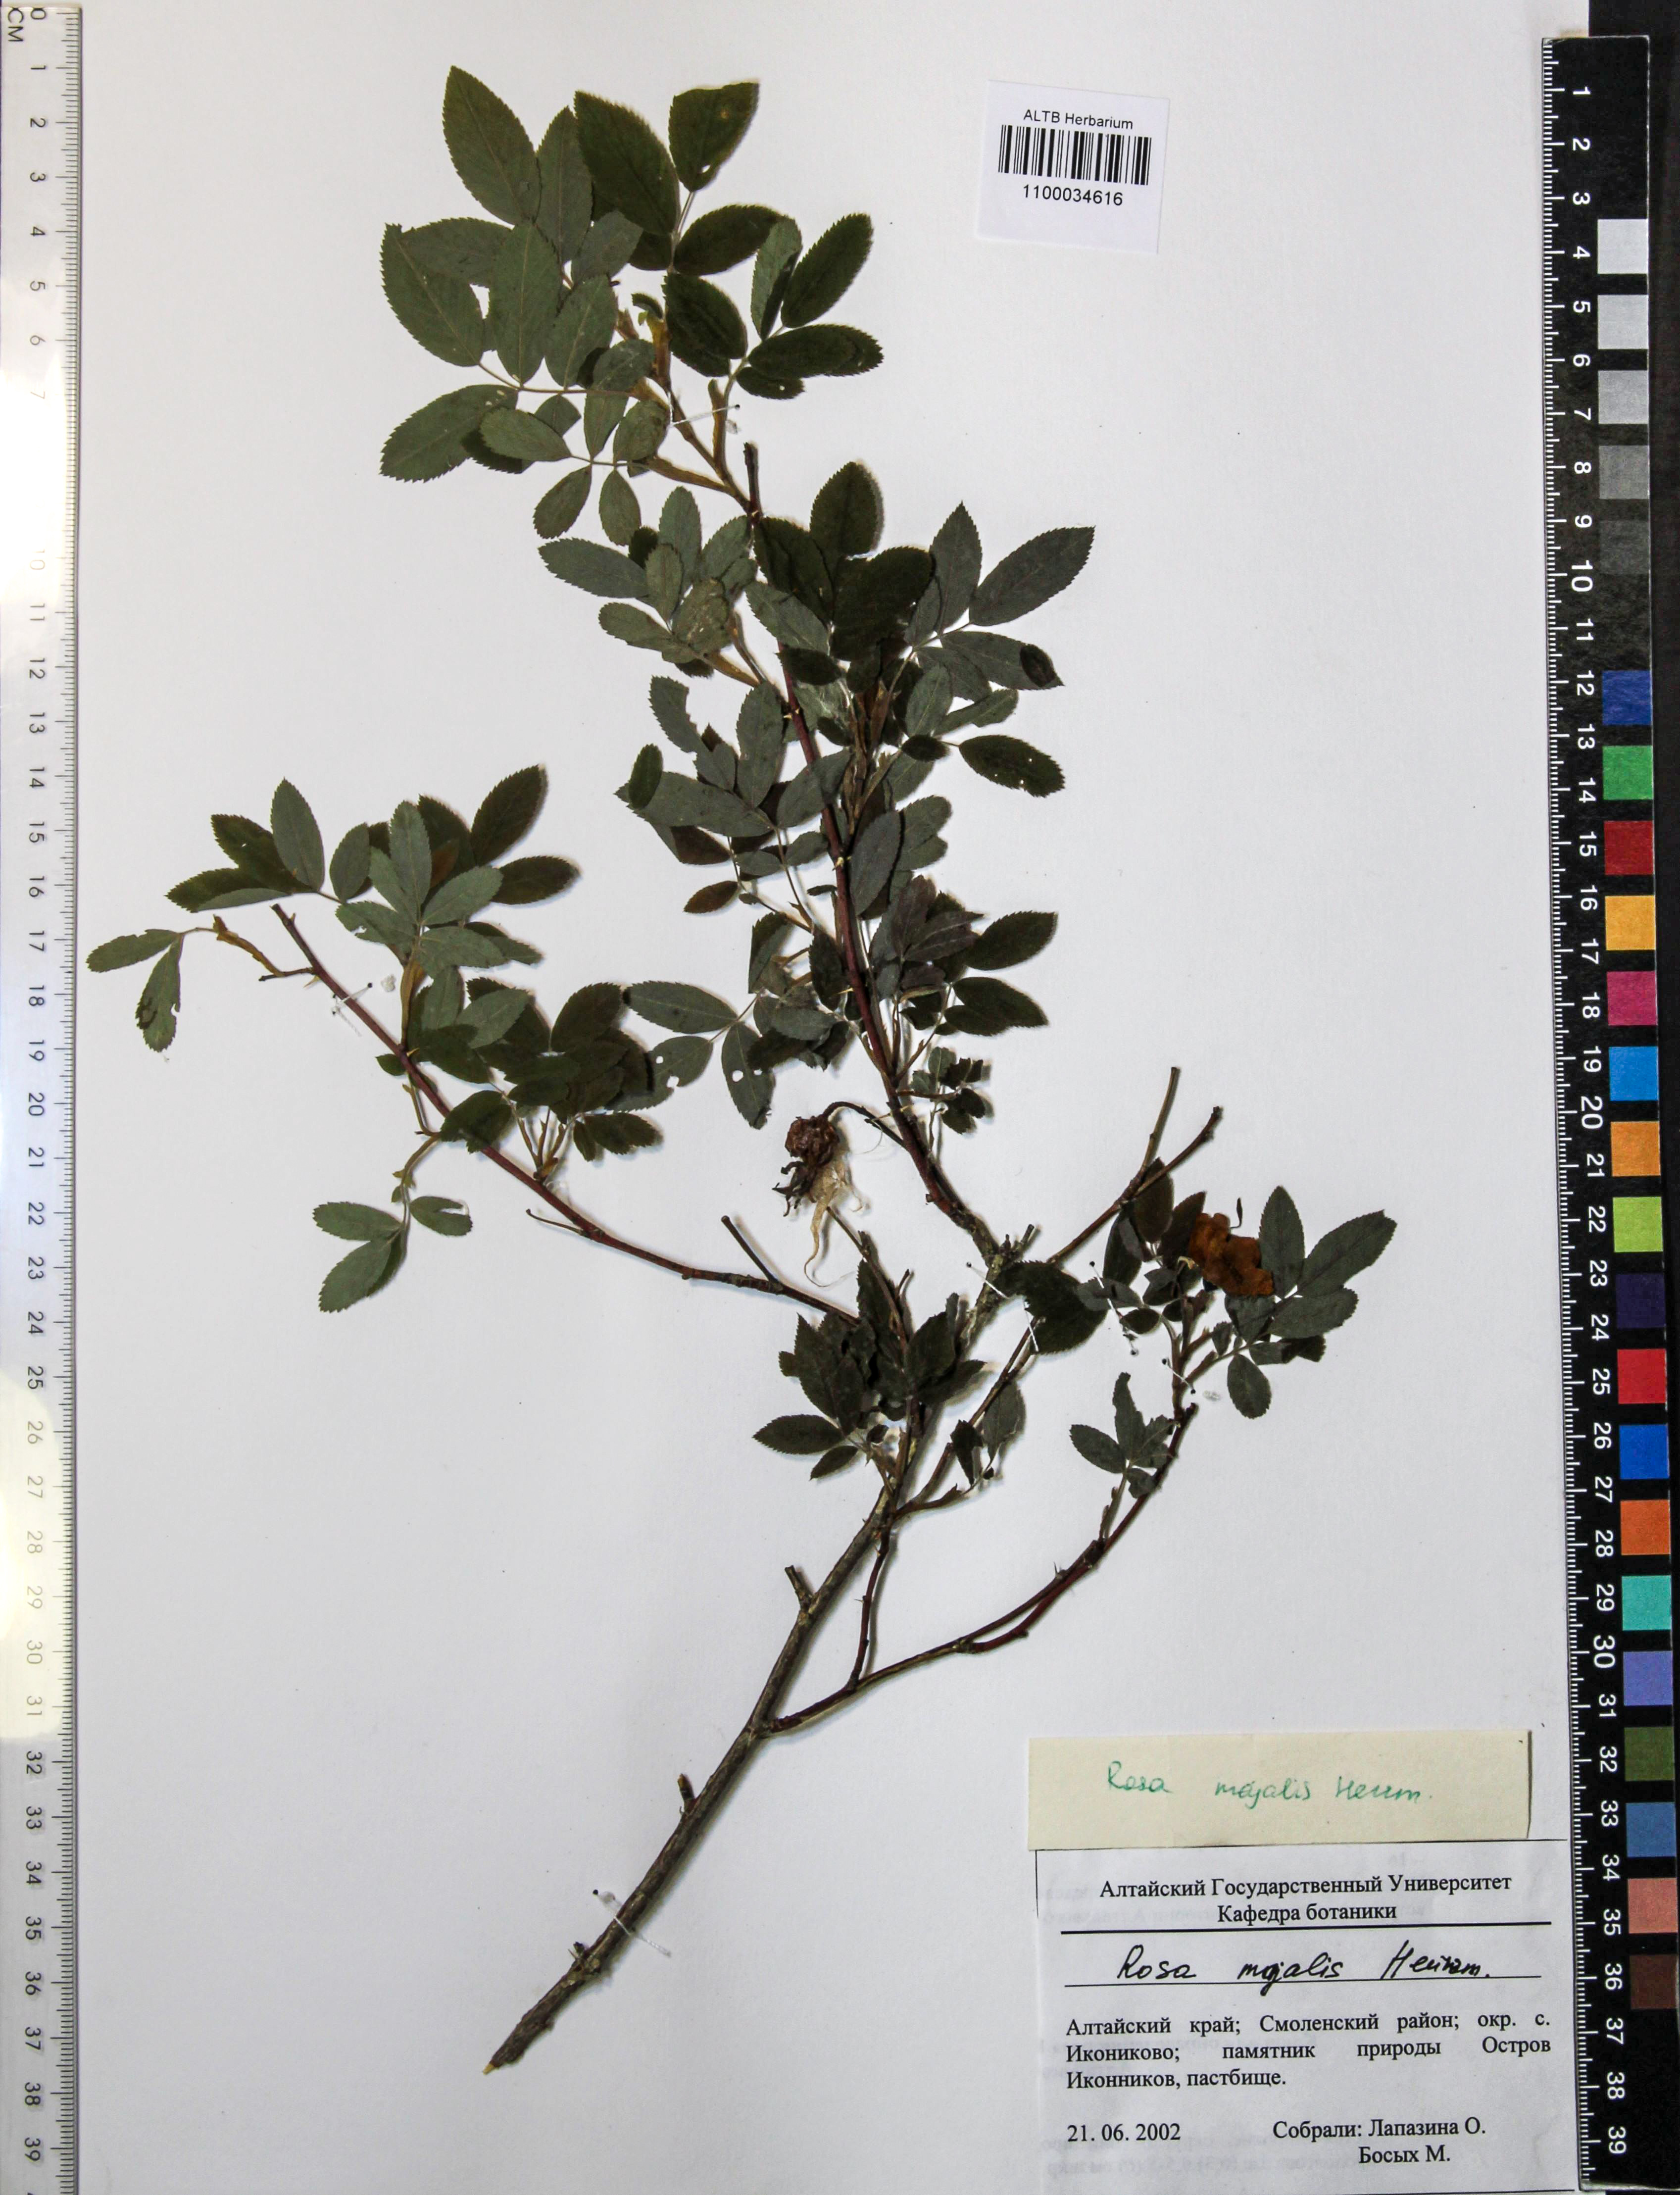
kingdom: Plantae
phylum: Tracheophyta
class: Magnoliopsida
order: Rosales
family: Rosaceae
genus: Rosa
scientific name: Rosa majalis
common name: Cinnamon rose
